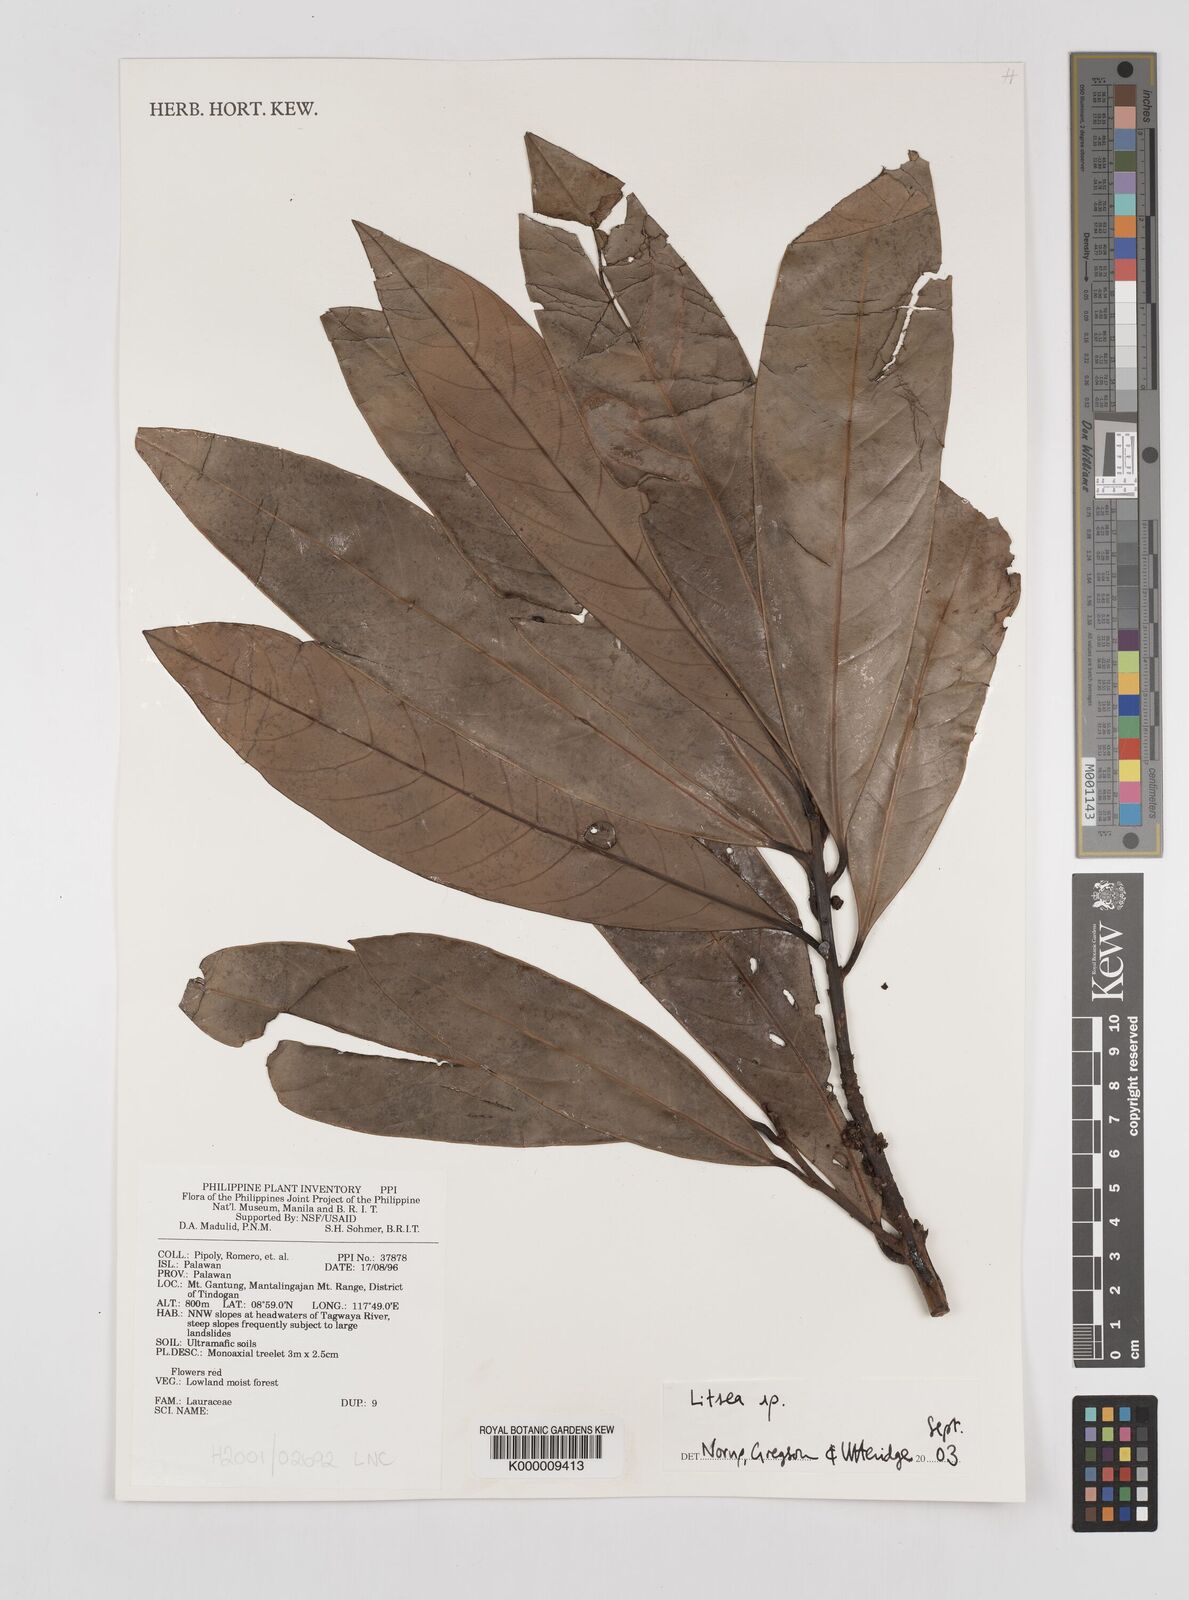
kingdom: Plantae
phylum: Tracheophyta
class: Magnoliopsida
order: Laurales
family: Lauraceae
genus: Litsea
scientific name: Litsea
